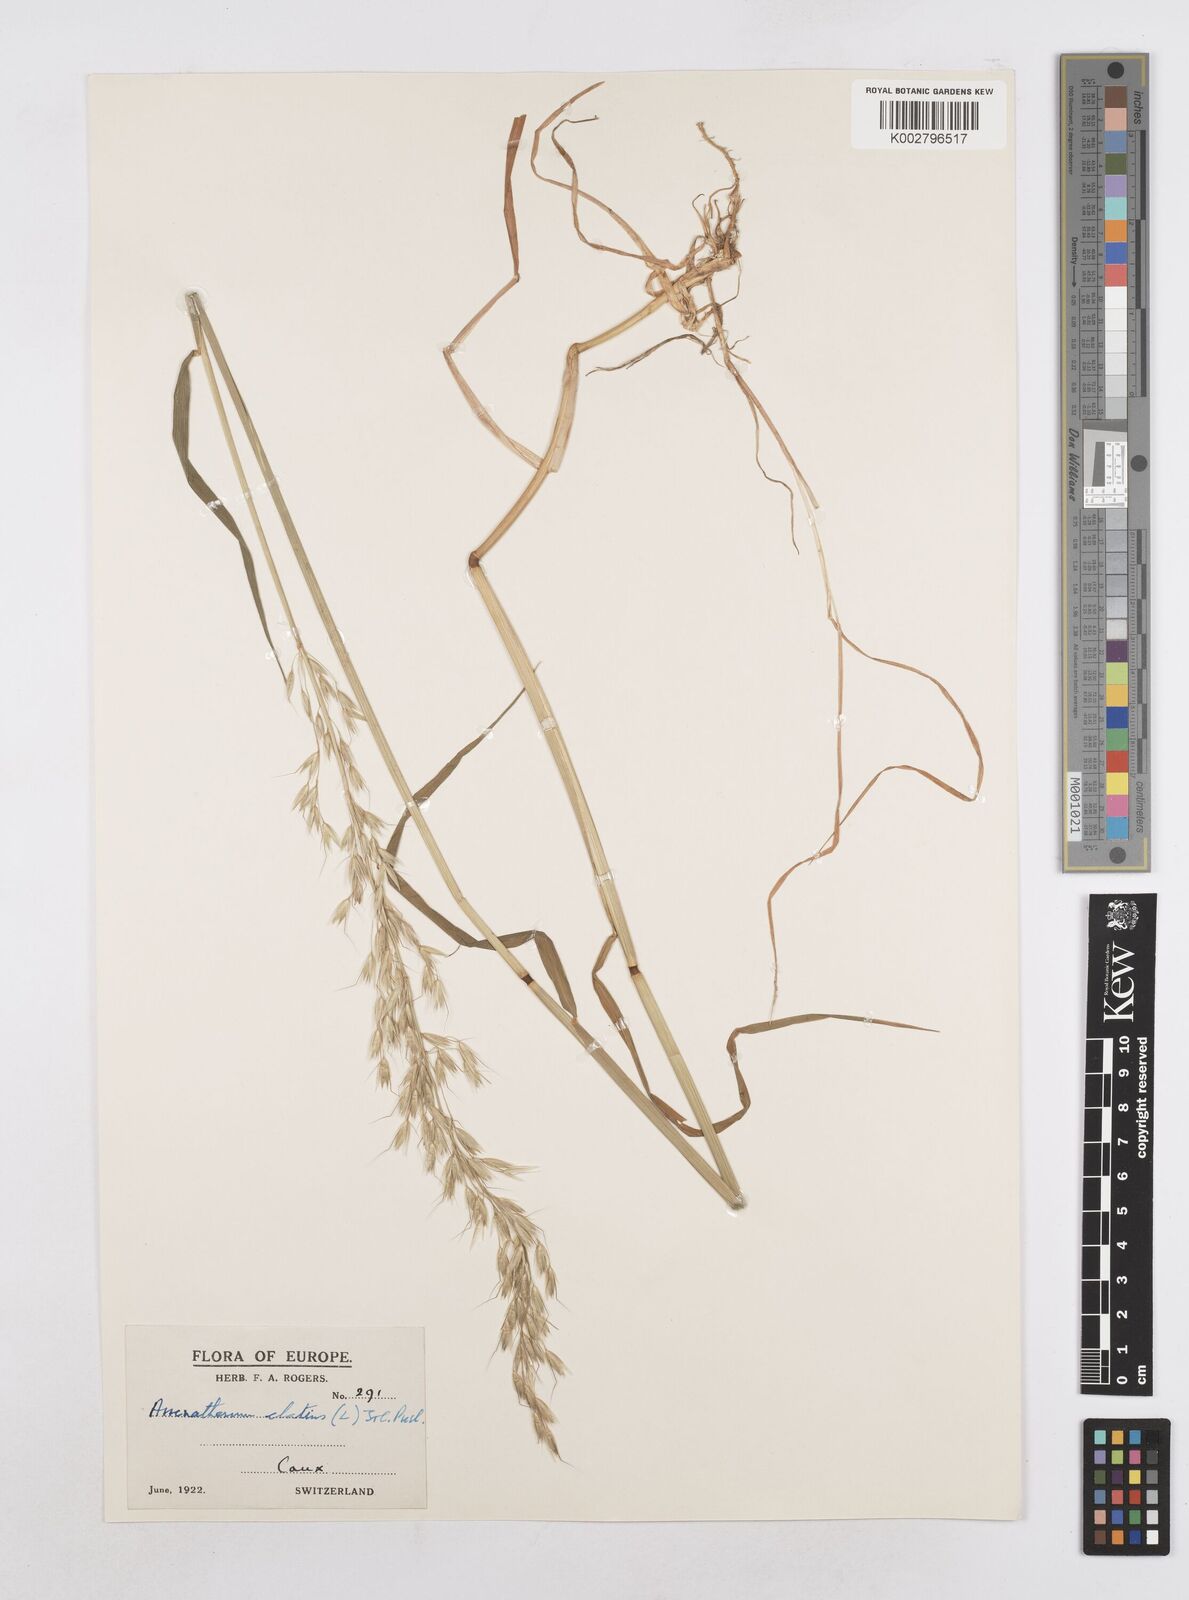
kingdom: Plantae
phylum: Tracheophyta
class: Liliopsida
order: Poales
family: Poaceae
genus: Arrhenatherum
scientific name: Arrhenatherum elatius
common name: Tall oatgrass
